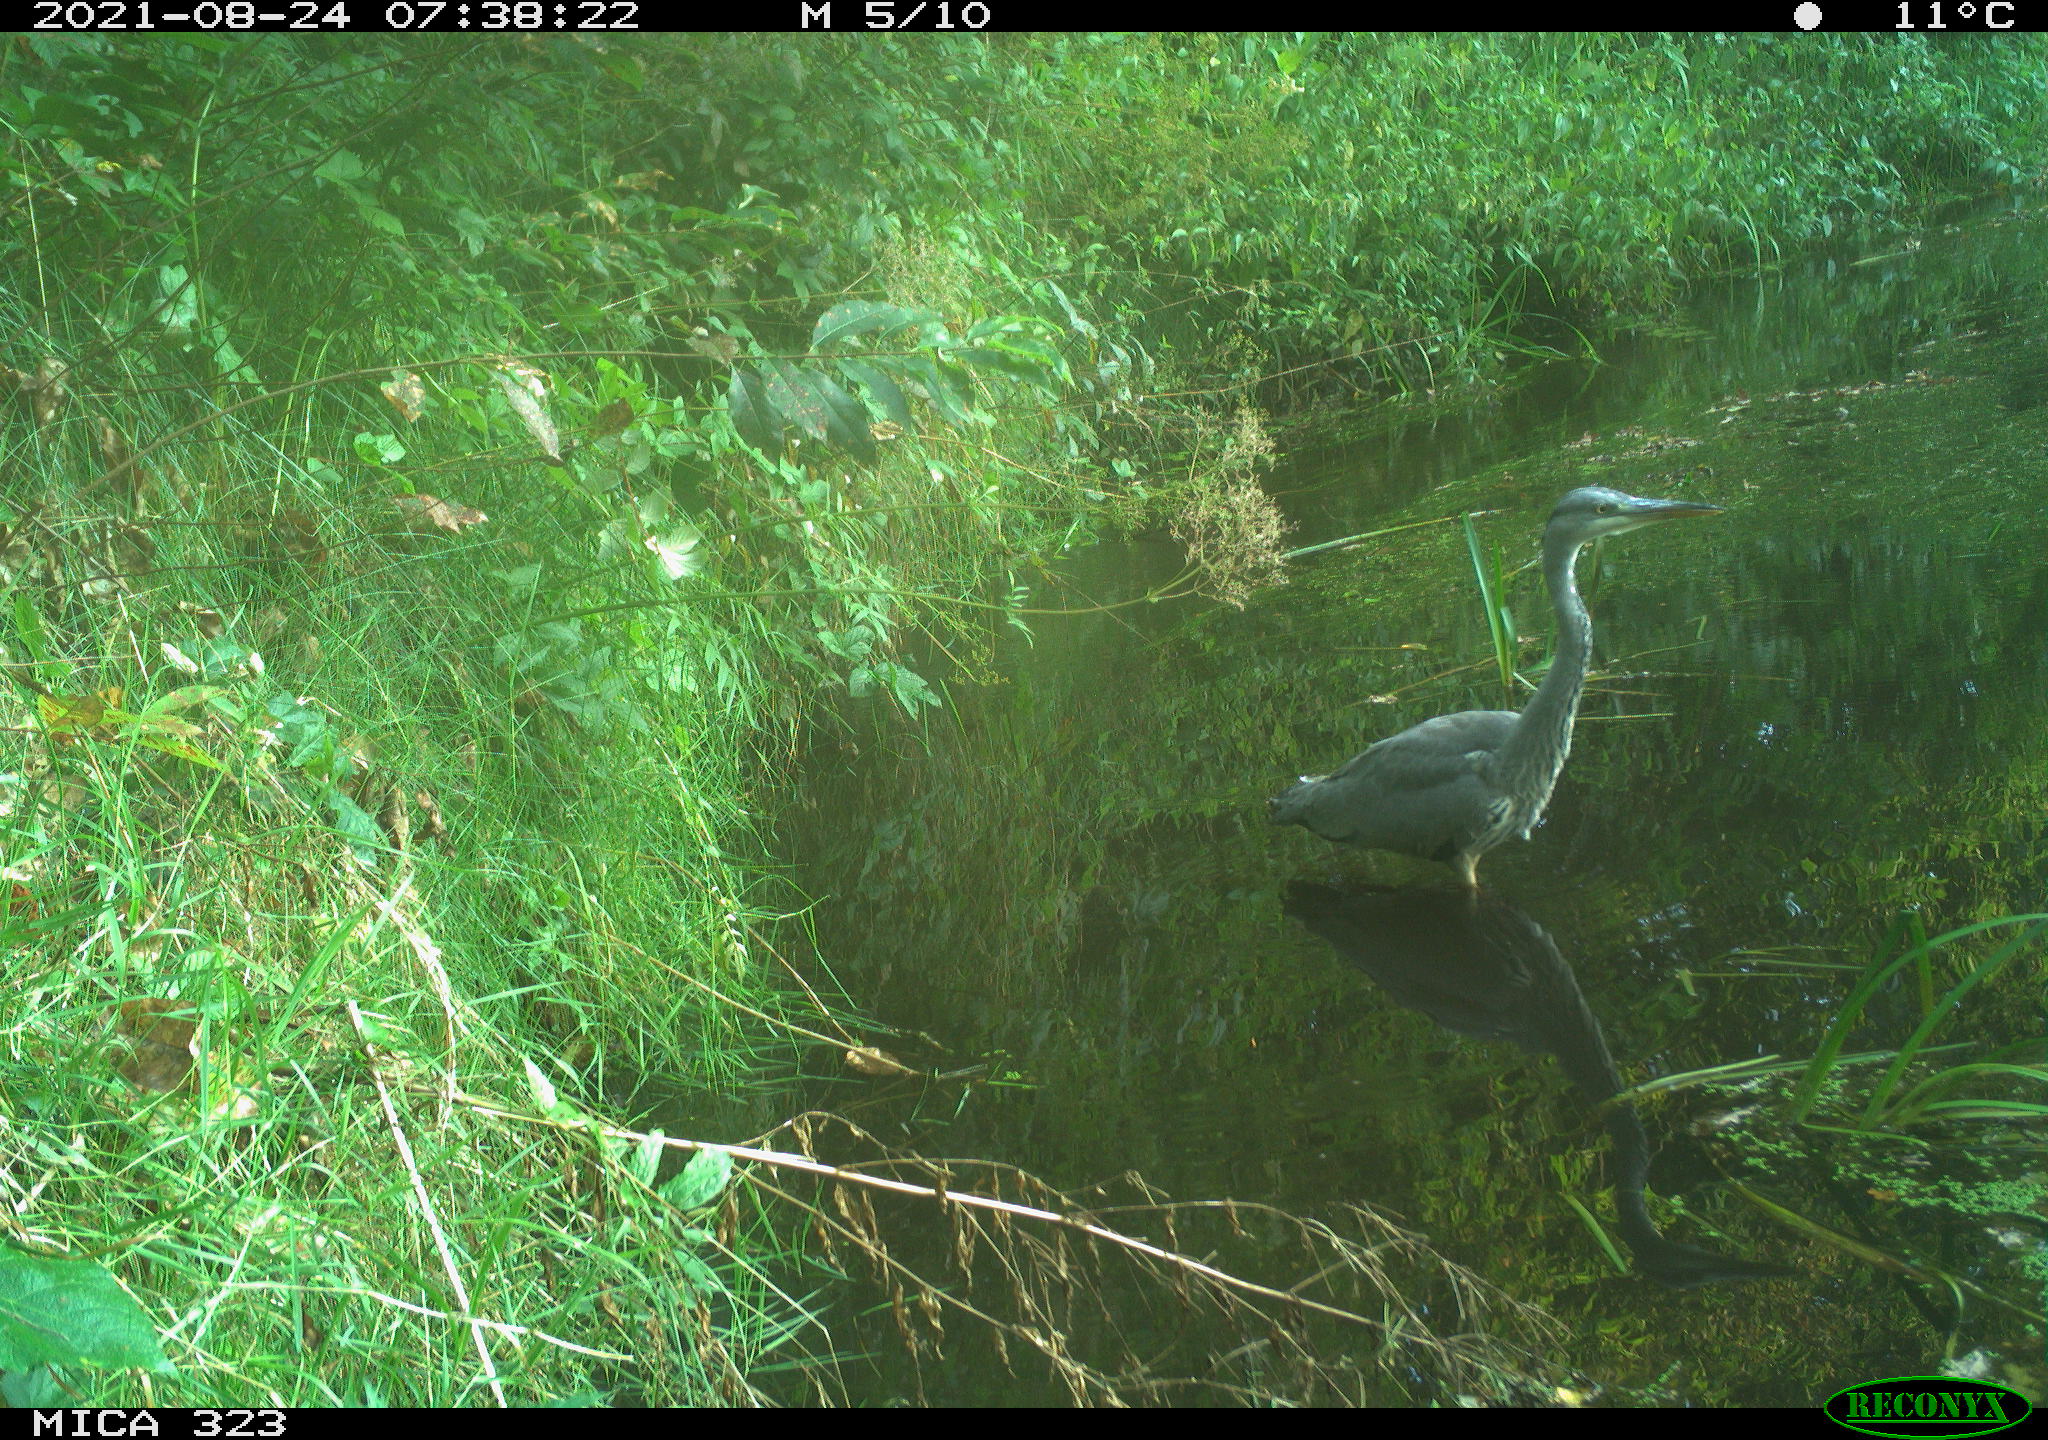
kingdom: Animalia
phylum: Chordata
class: Aves
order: Pelecaniformes
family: Ardeidae
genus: Ardea
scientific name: Ardea cinerea
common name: Grey heron
